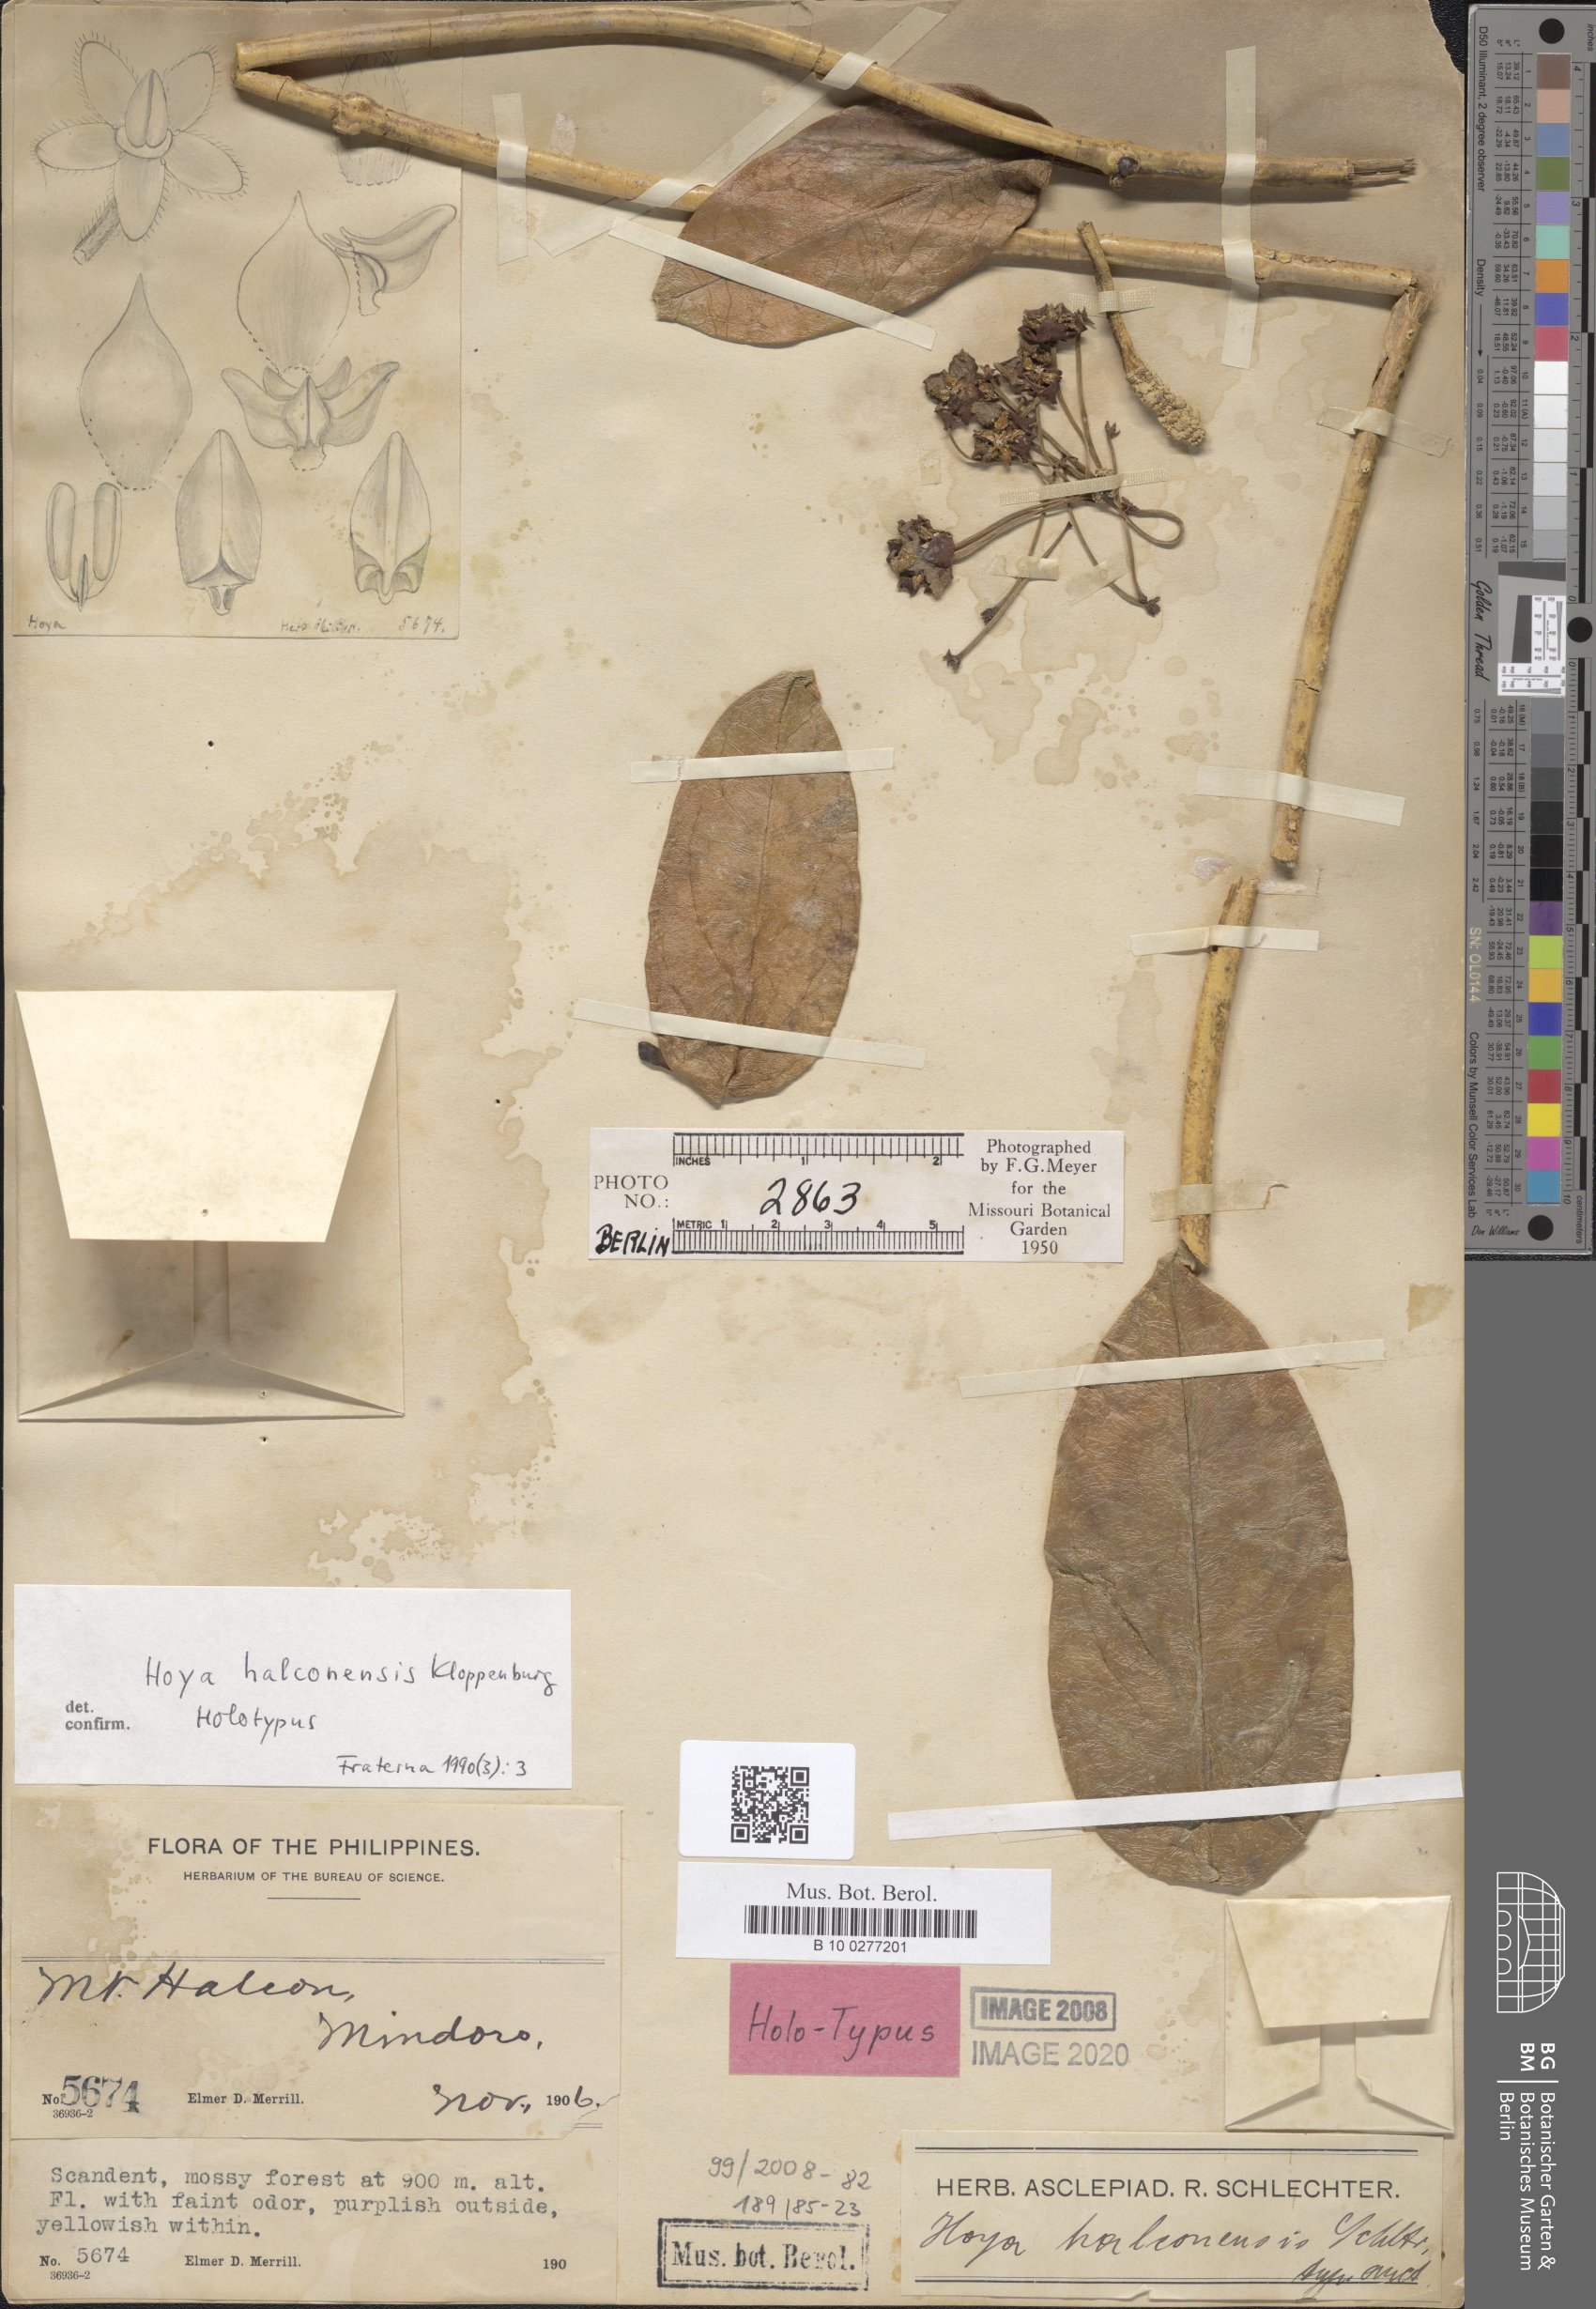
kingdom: Plantae
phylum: Tracheophyta
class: Magnoliopsida
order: Gentianales
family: Apocynaceae
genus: Hoya
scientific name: Hoya halconensis
